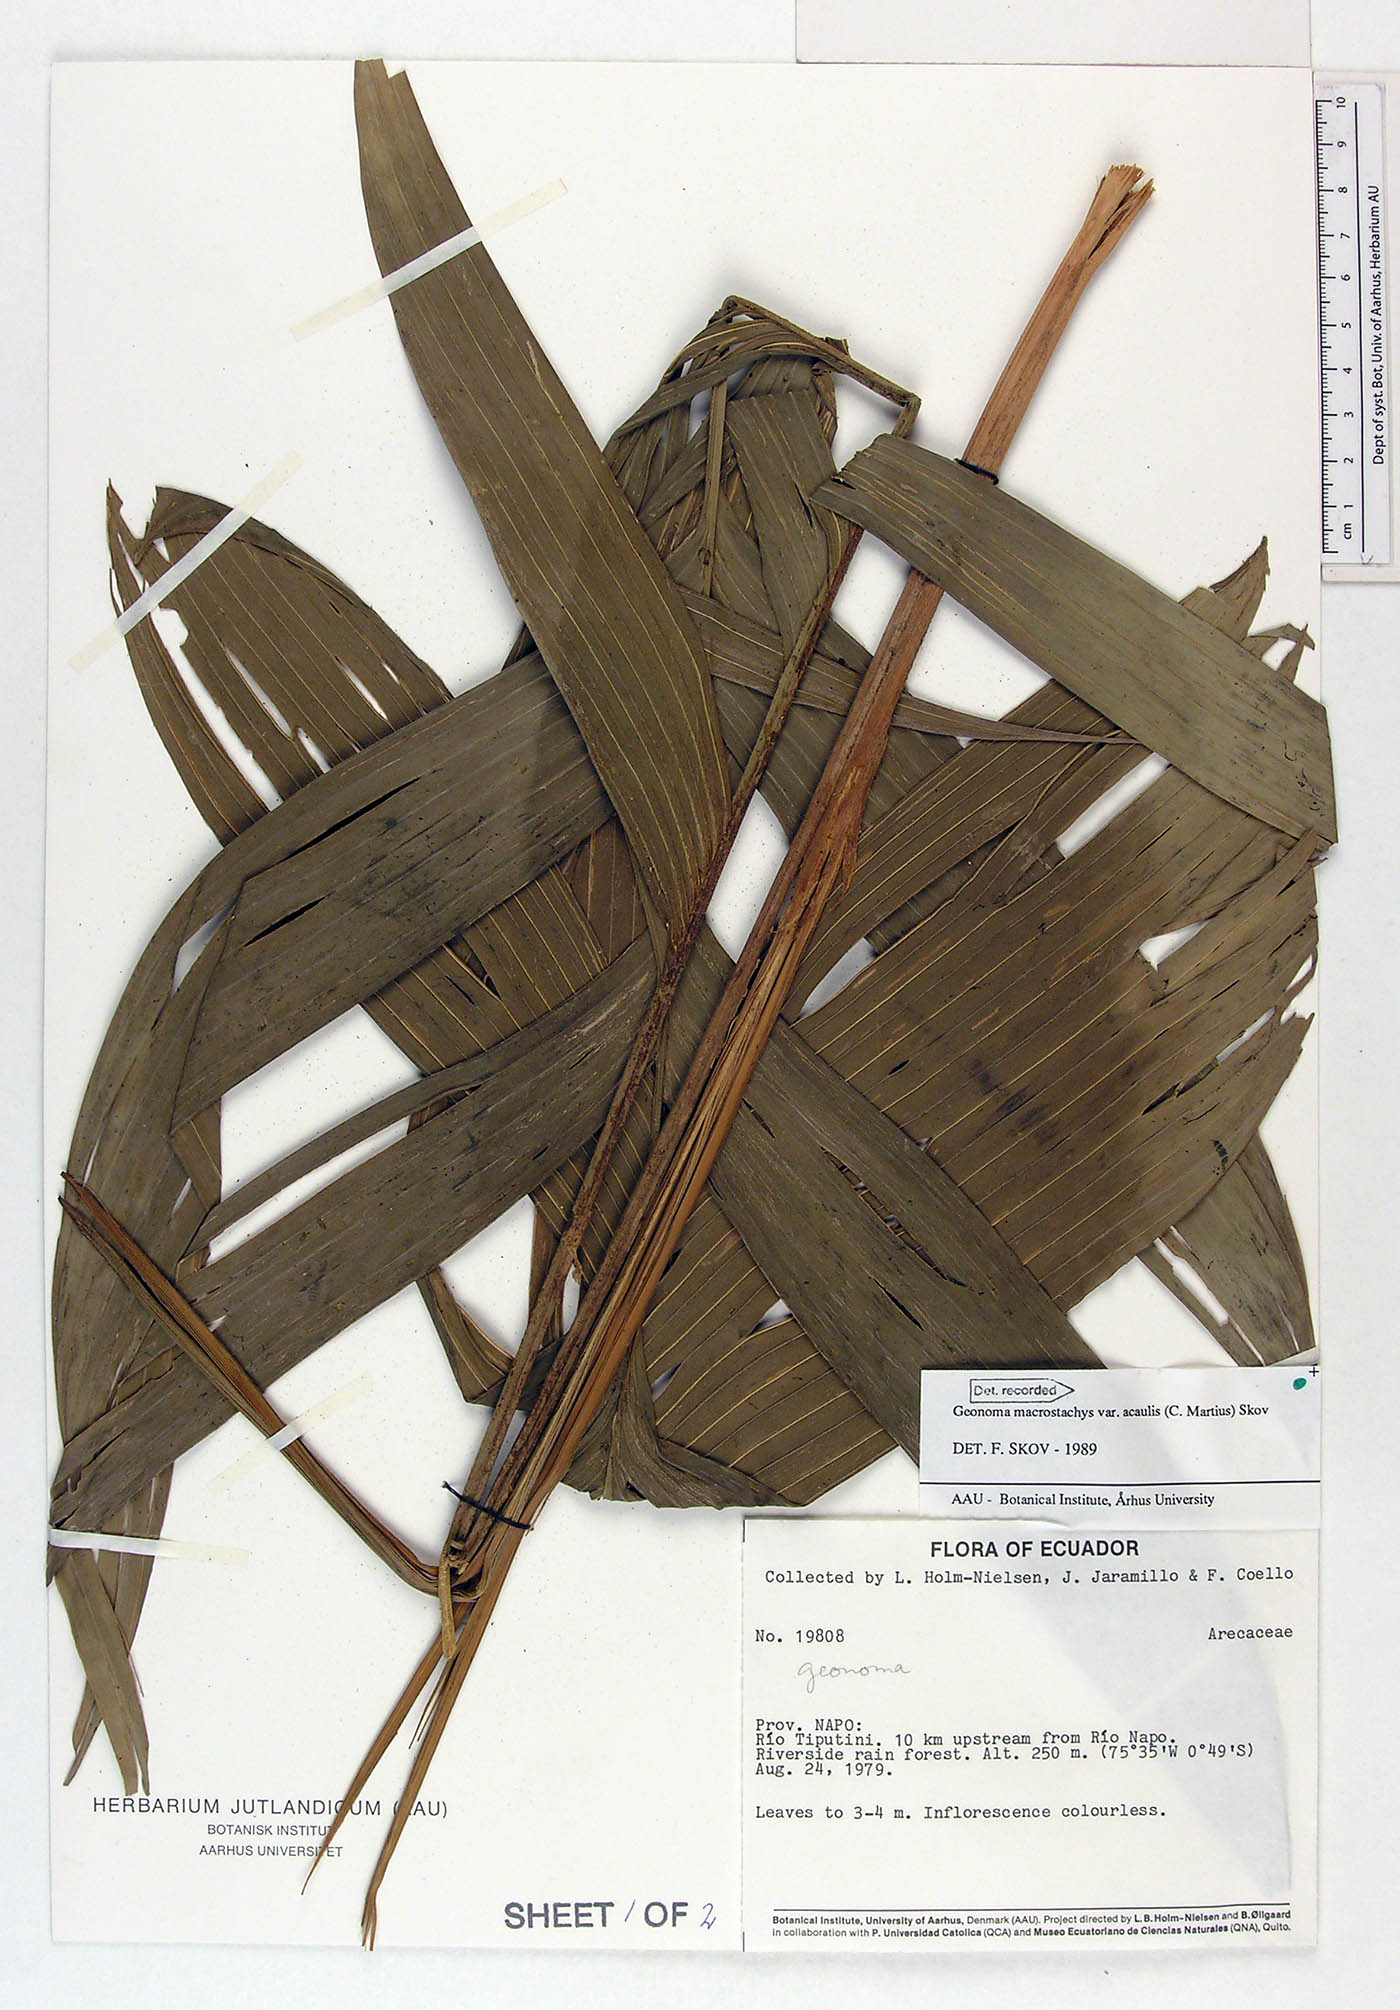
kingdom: Plantae
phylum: Tracheophyta
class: Liliopsida
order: Arecales
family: Arecaceae
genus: Geonoma
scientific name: Geonoma macrostachys
